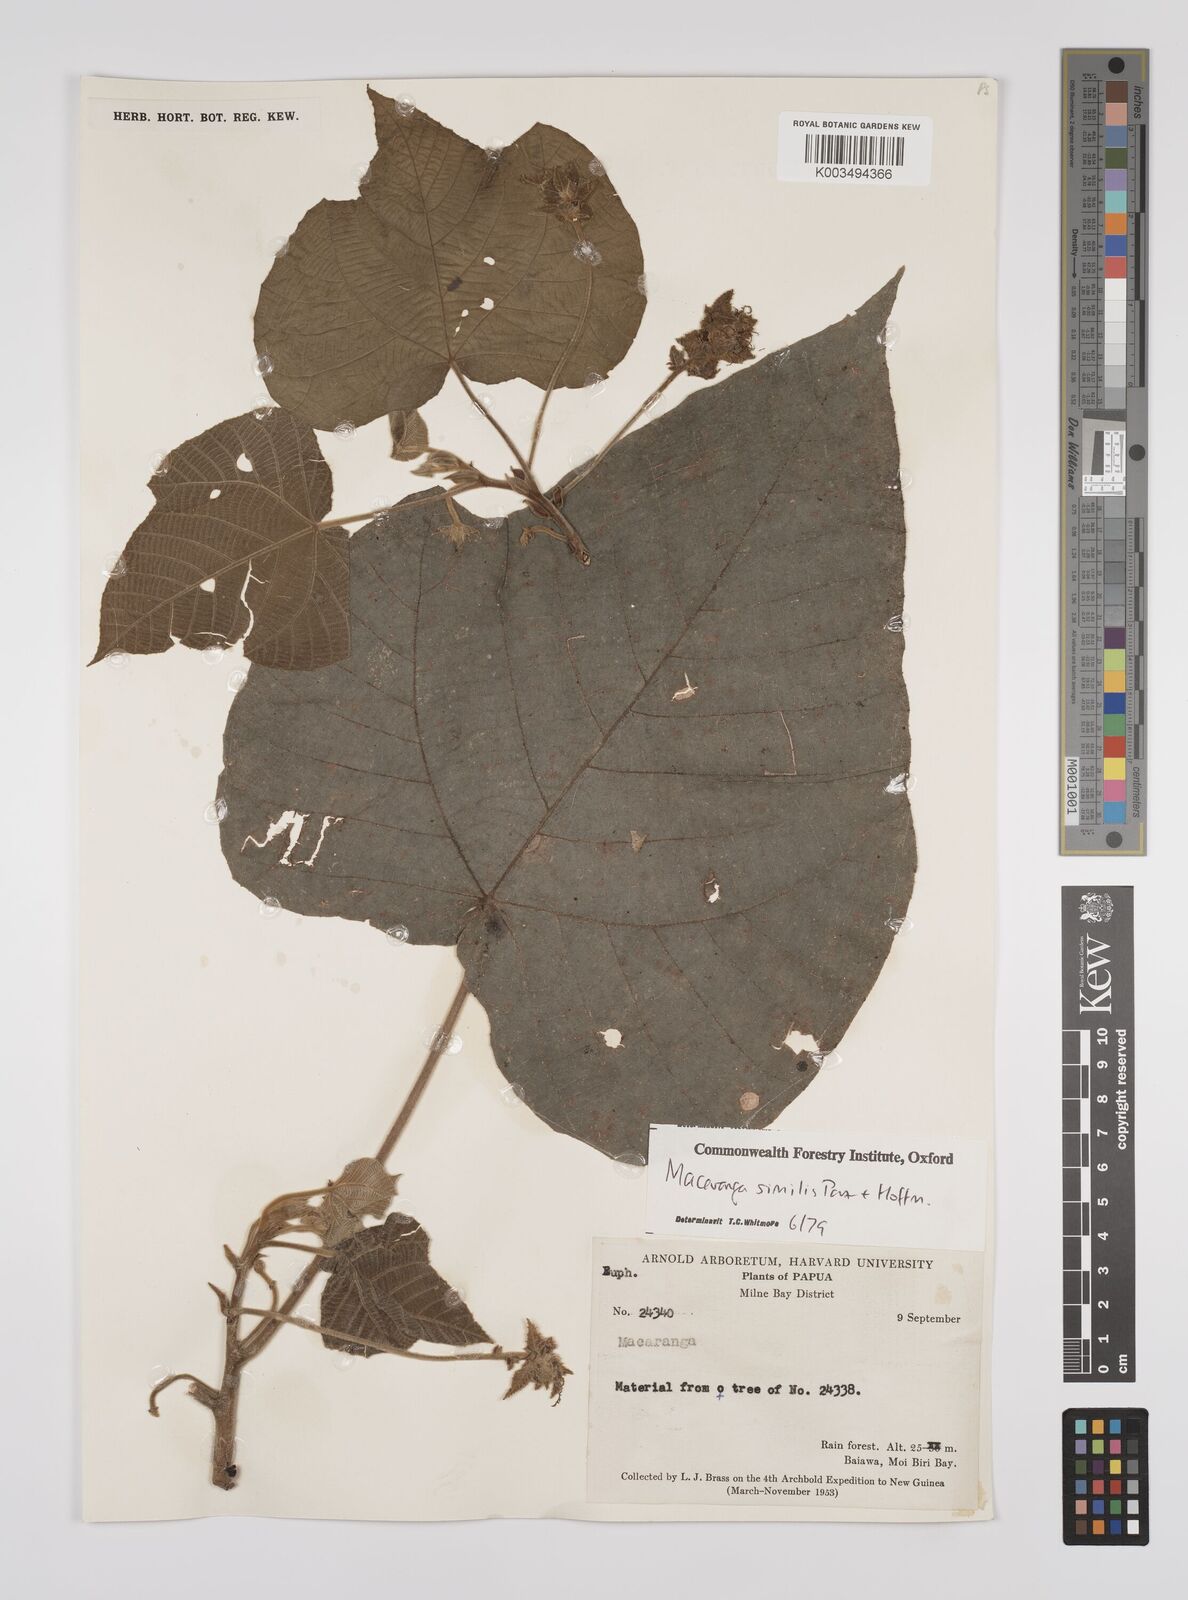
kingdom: Plantae
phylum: Tracheophyta
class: Magnoliopsida
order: Malpighiales
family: Euphorbiaceae
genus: Macaranga
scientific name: Macaranga similis
